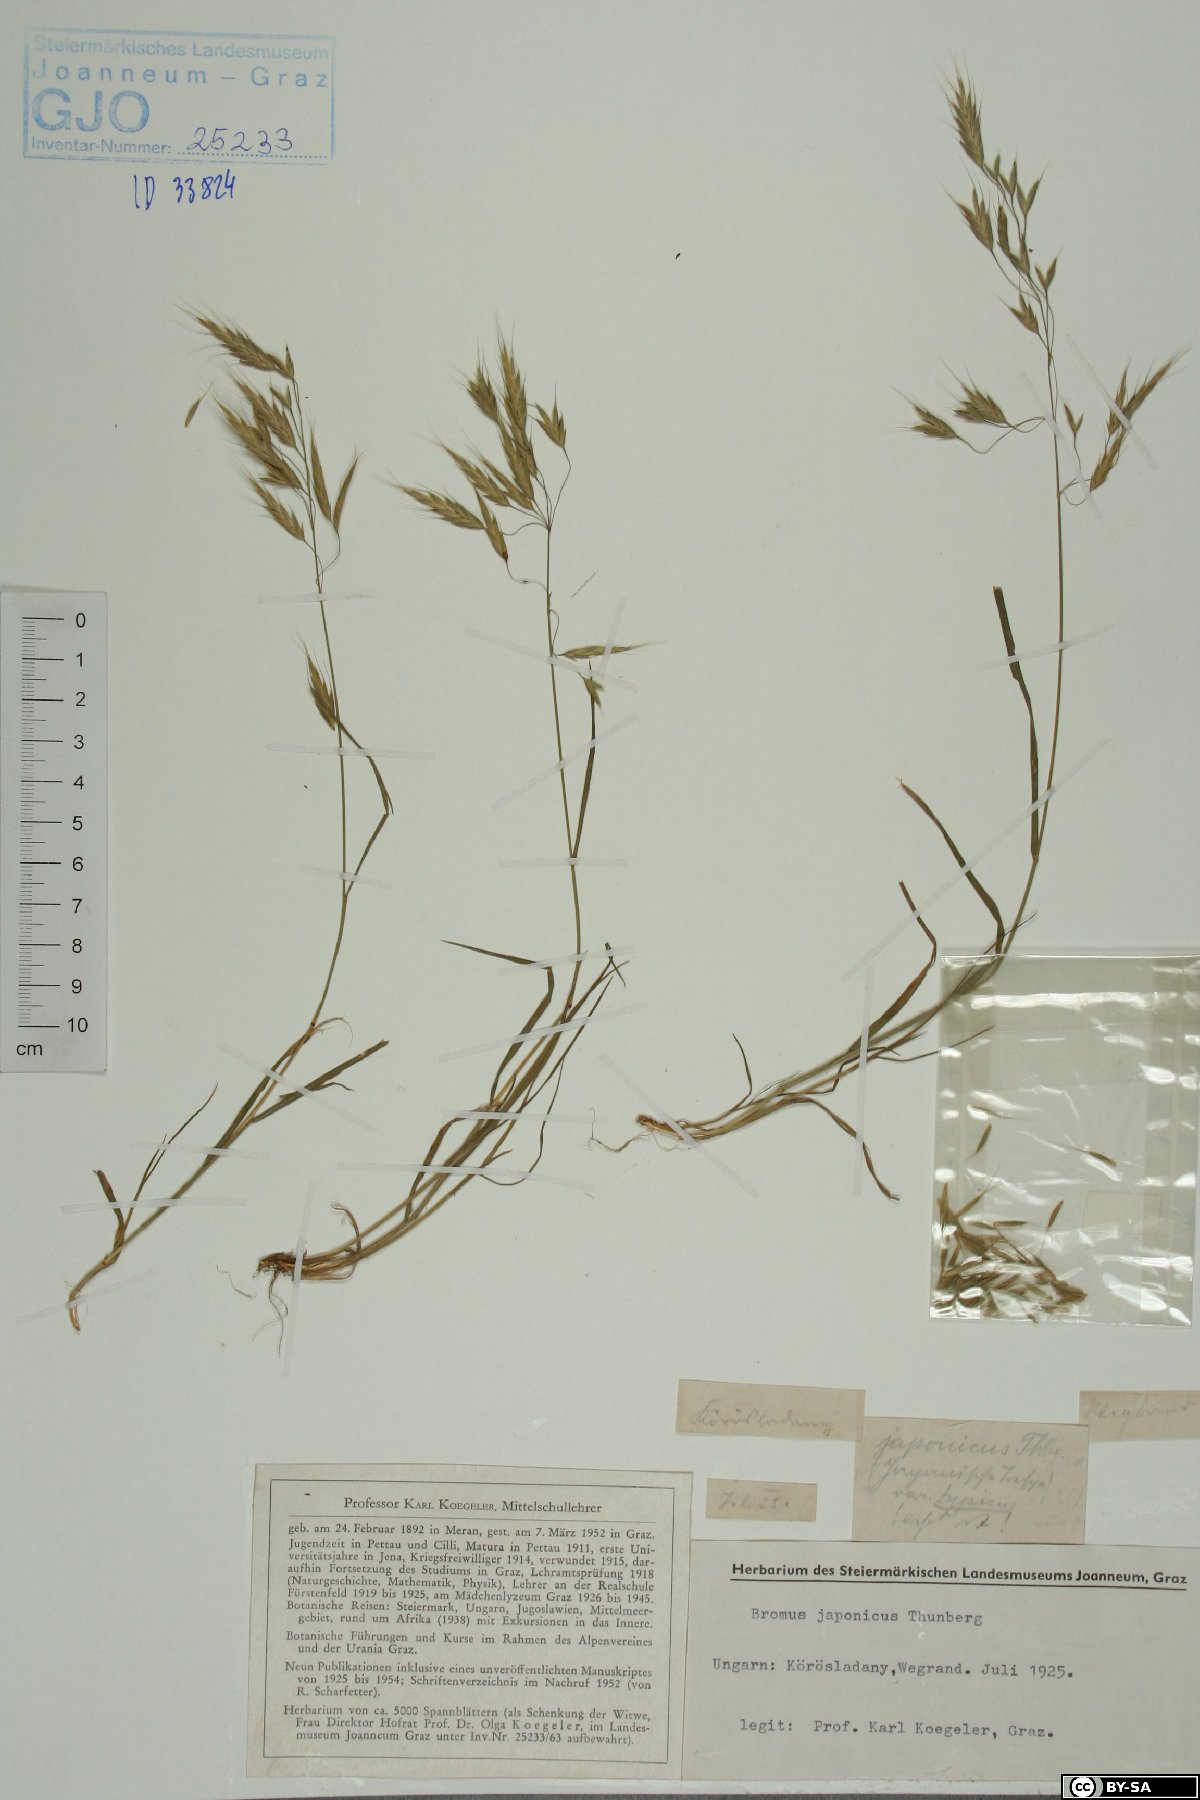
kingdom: Plantae
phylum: Tracheophyta
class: Liliopsida
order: Poales
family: Poaceae
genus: Bromus
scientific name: Bromus japonicus
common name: Japanese brome
